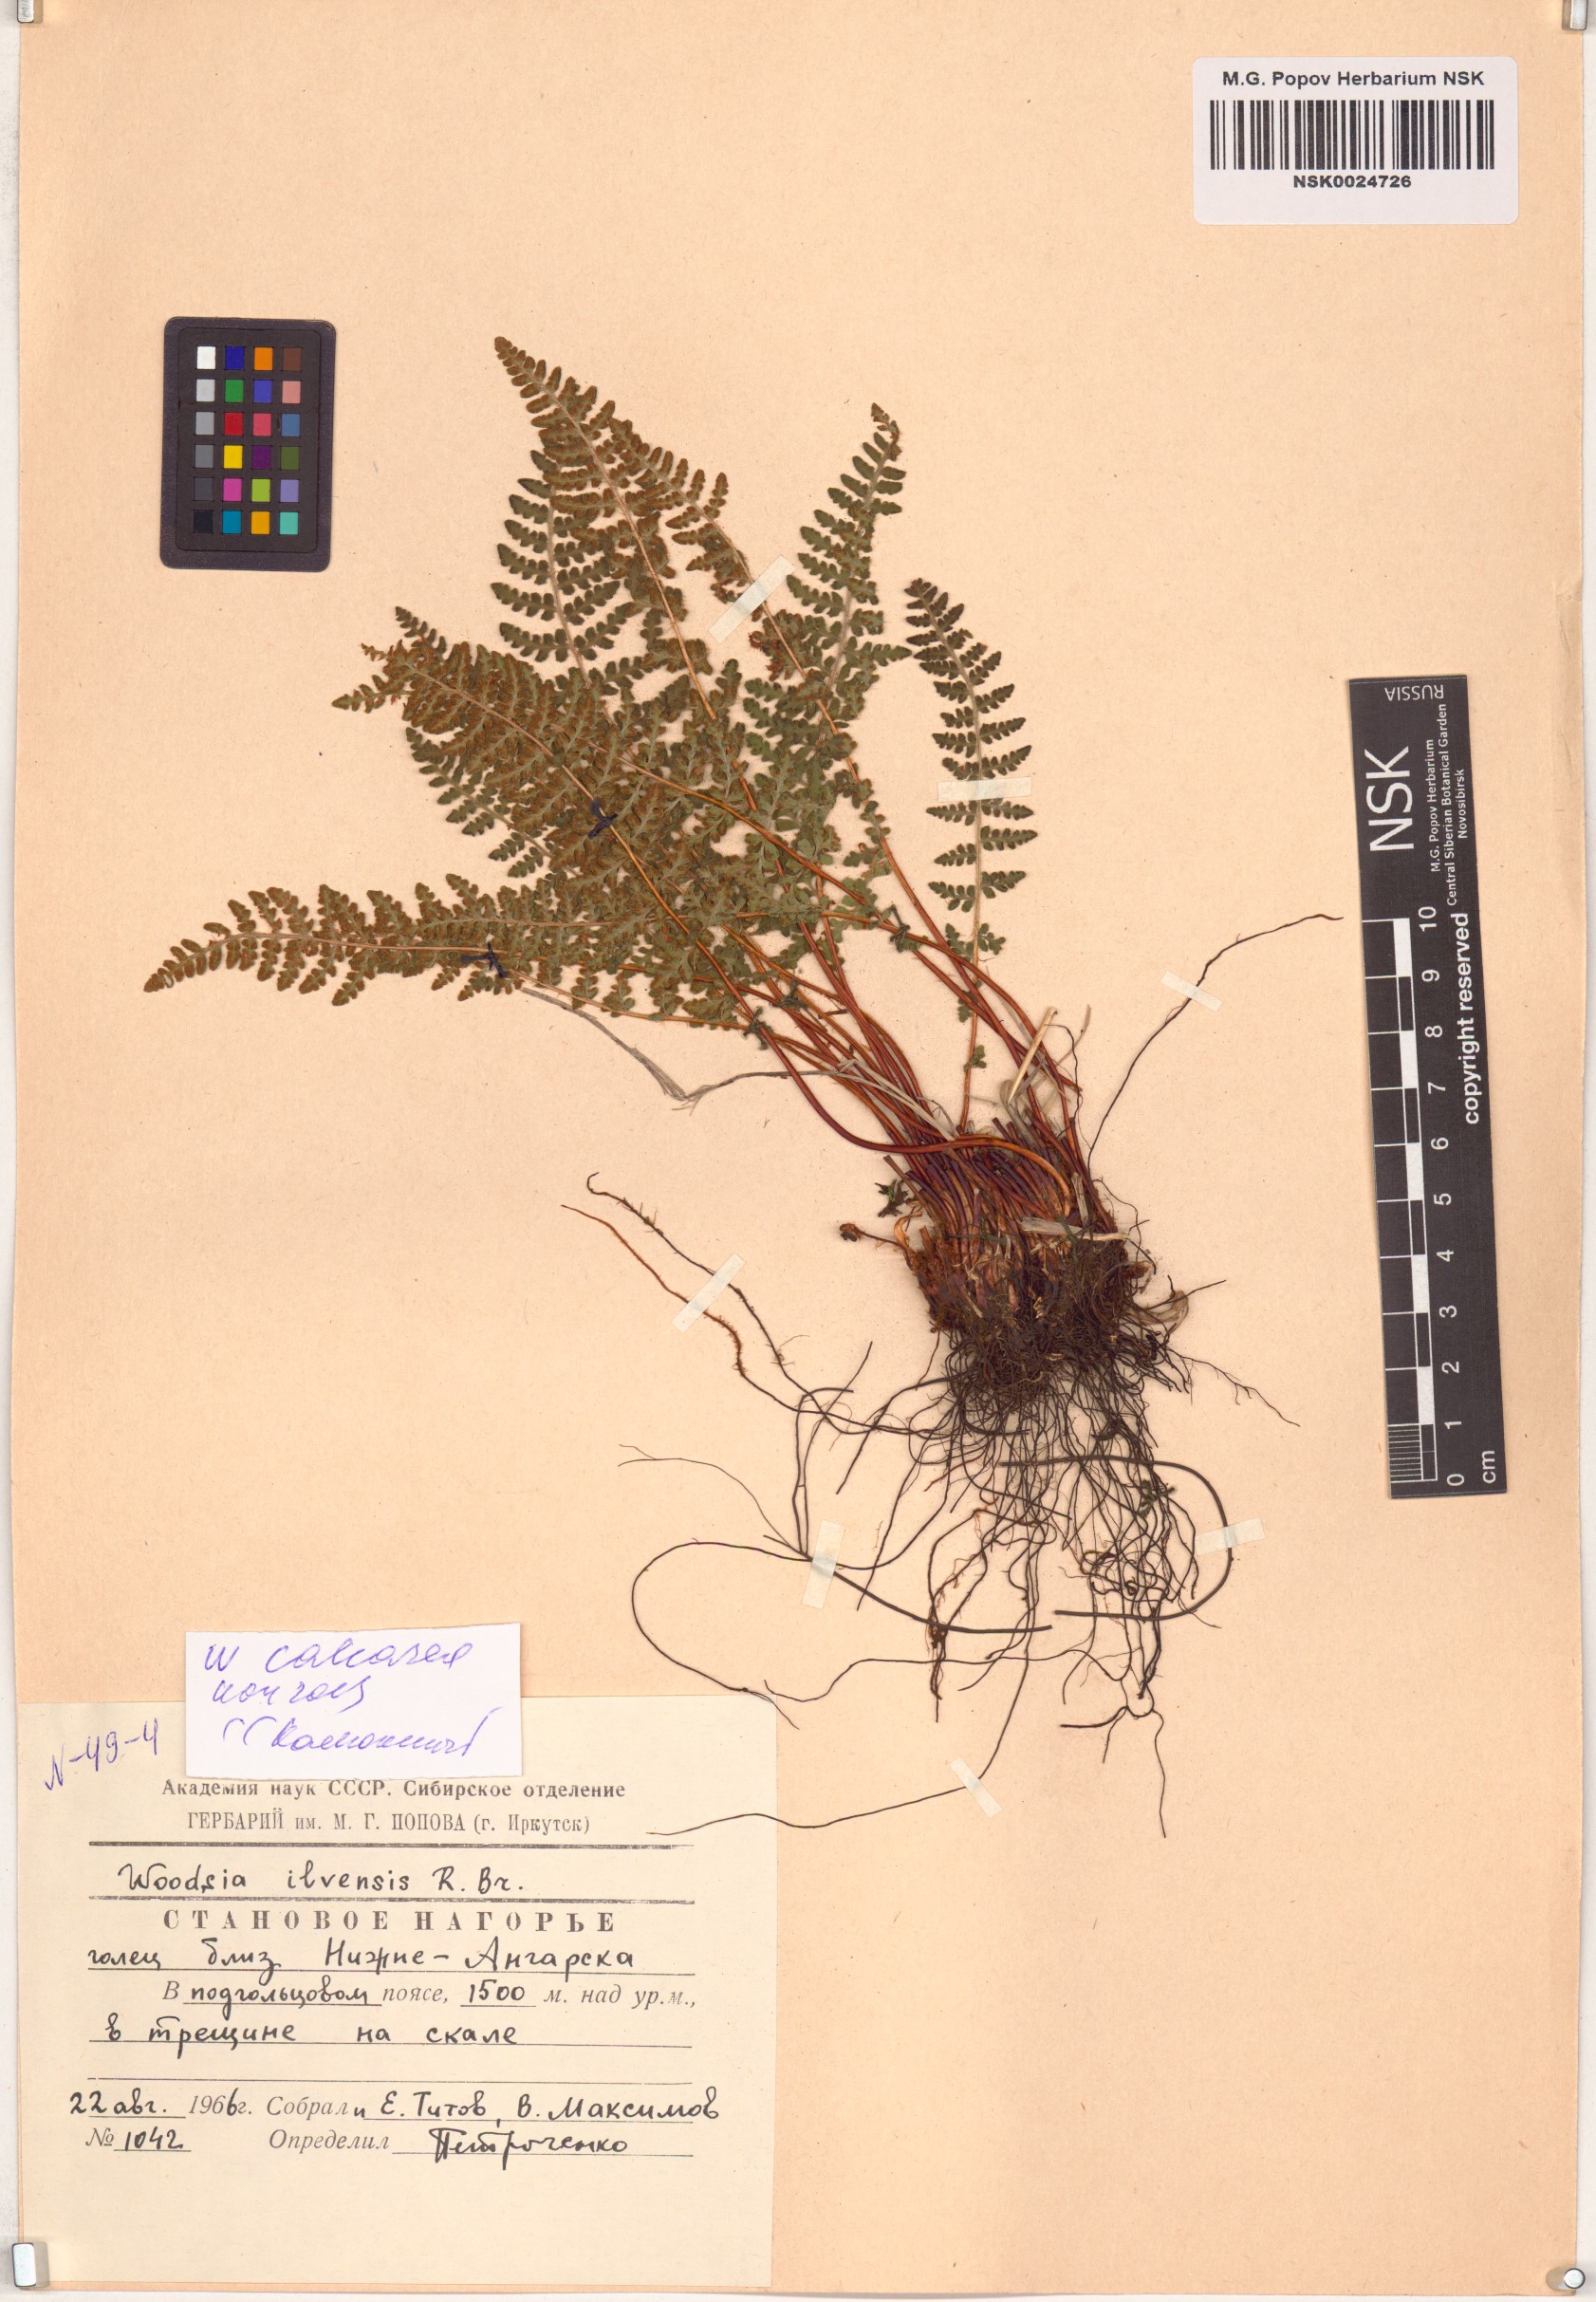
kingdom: Plantae
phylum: Tracheophyta
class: Polypodiopsida
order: Polypodiales
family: Woodsiaceae
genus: Woodsia
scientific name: Woodsia calcarea
